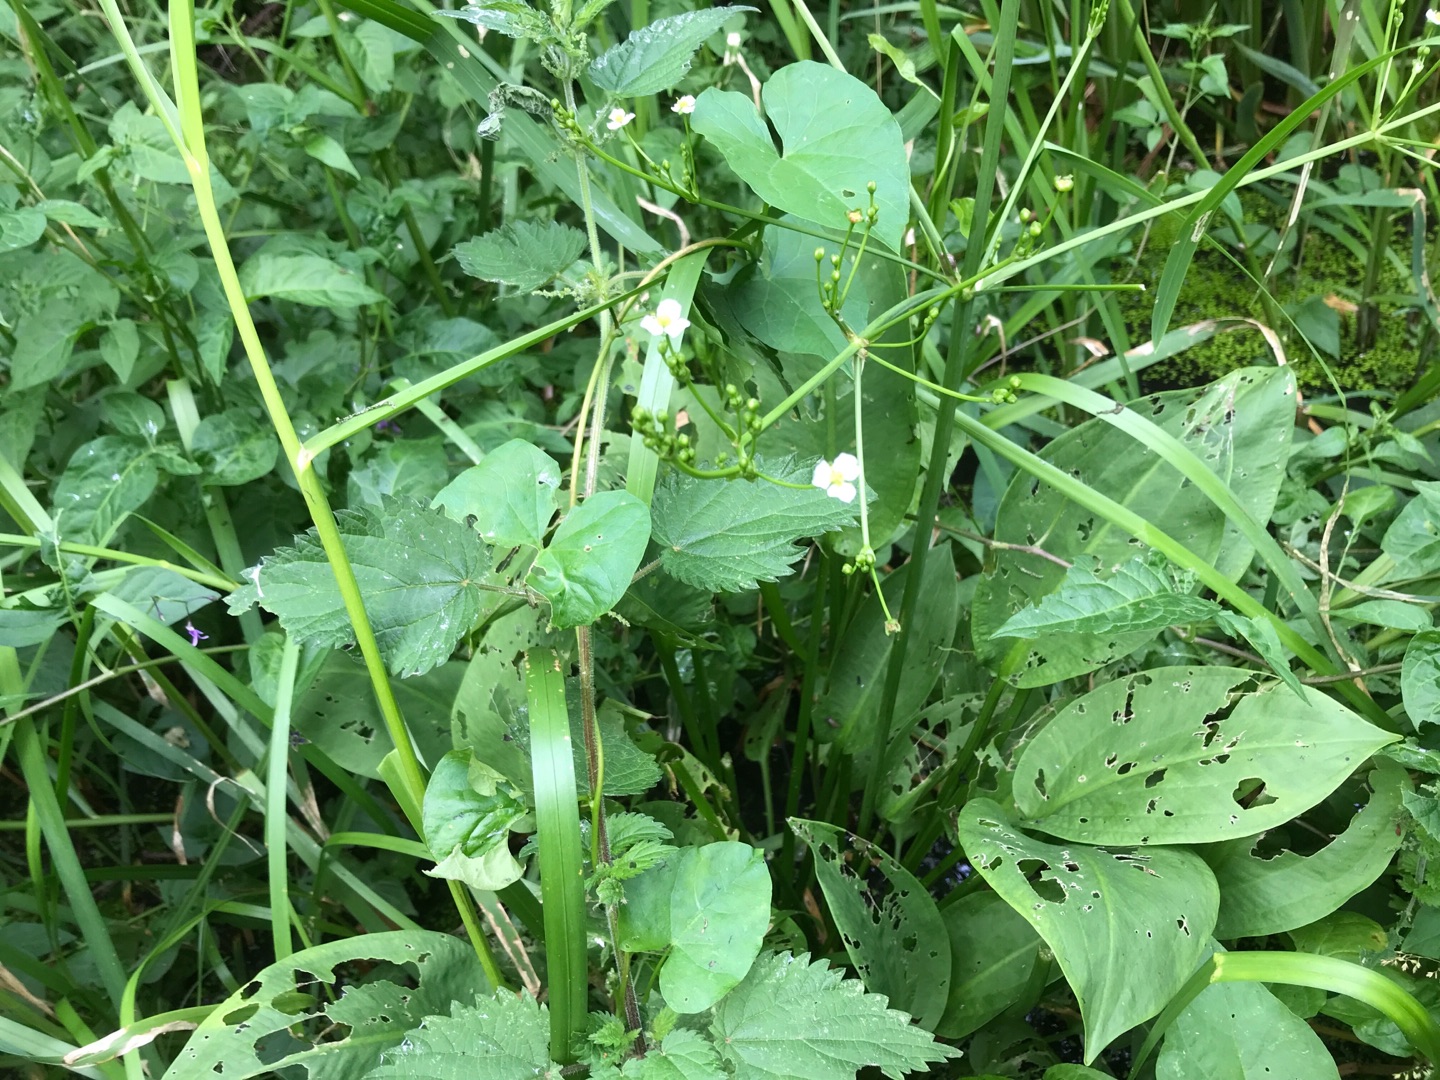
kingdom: Plantae
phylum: Tracheophyta
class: Liliopsida
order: Alismatales
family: Alismataceae
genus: Alisma
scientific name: Alisma plantago-aquatica
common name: Vejbred-skeblad
